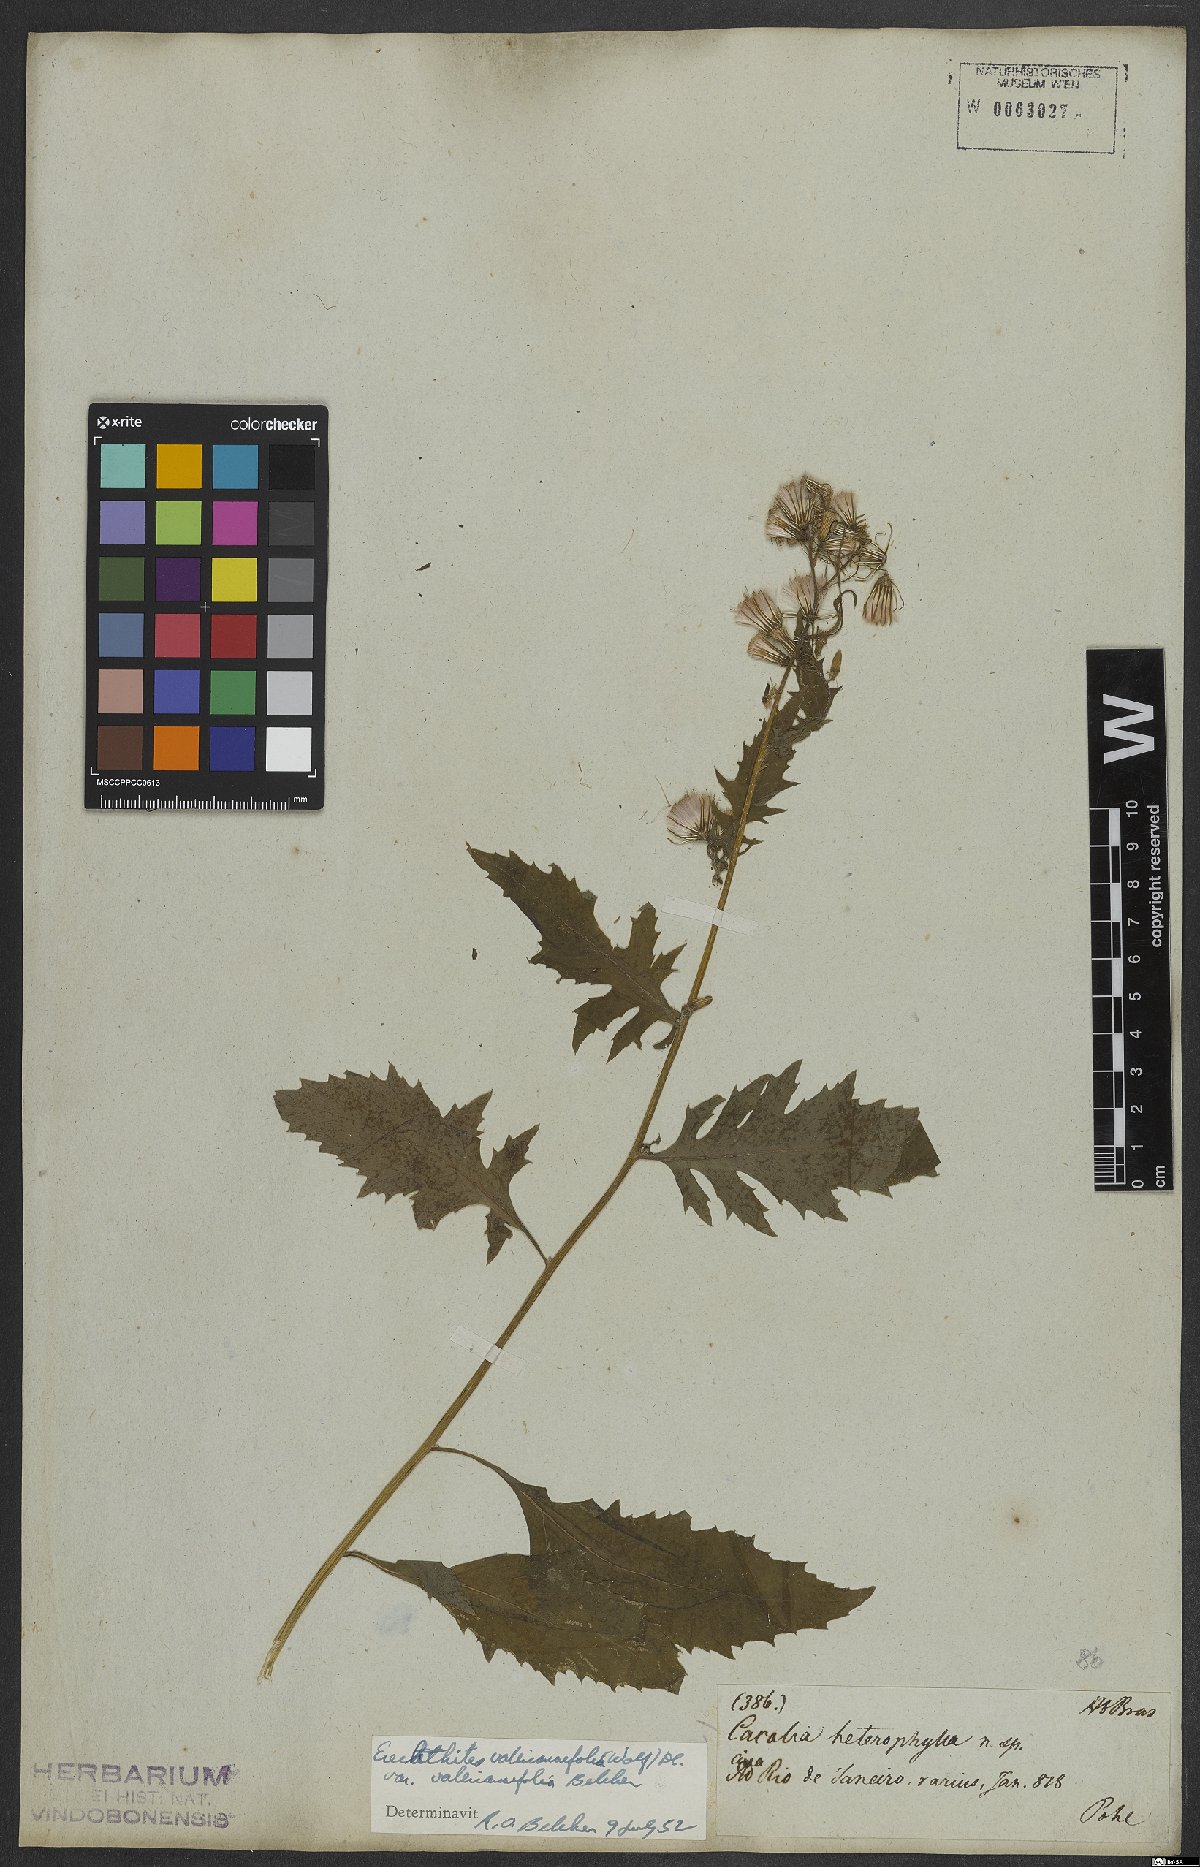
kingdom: Plantae
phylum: Tracheophyta
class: Magnoliopsida
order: Asterales
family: Asteraceae
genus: Erechtites
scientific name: Erechtites valerianifolius
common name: Tropical burnweed
